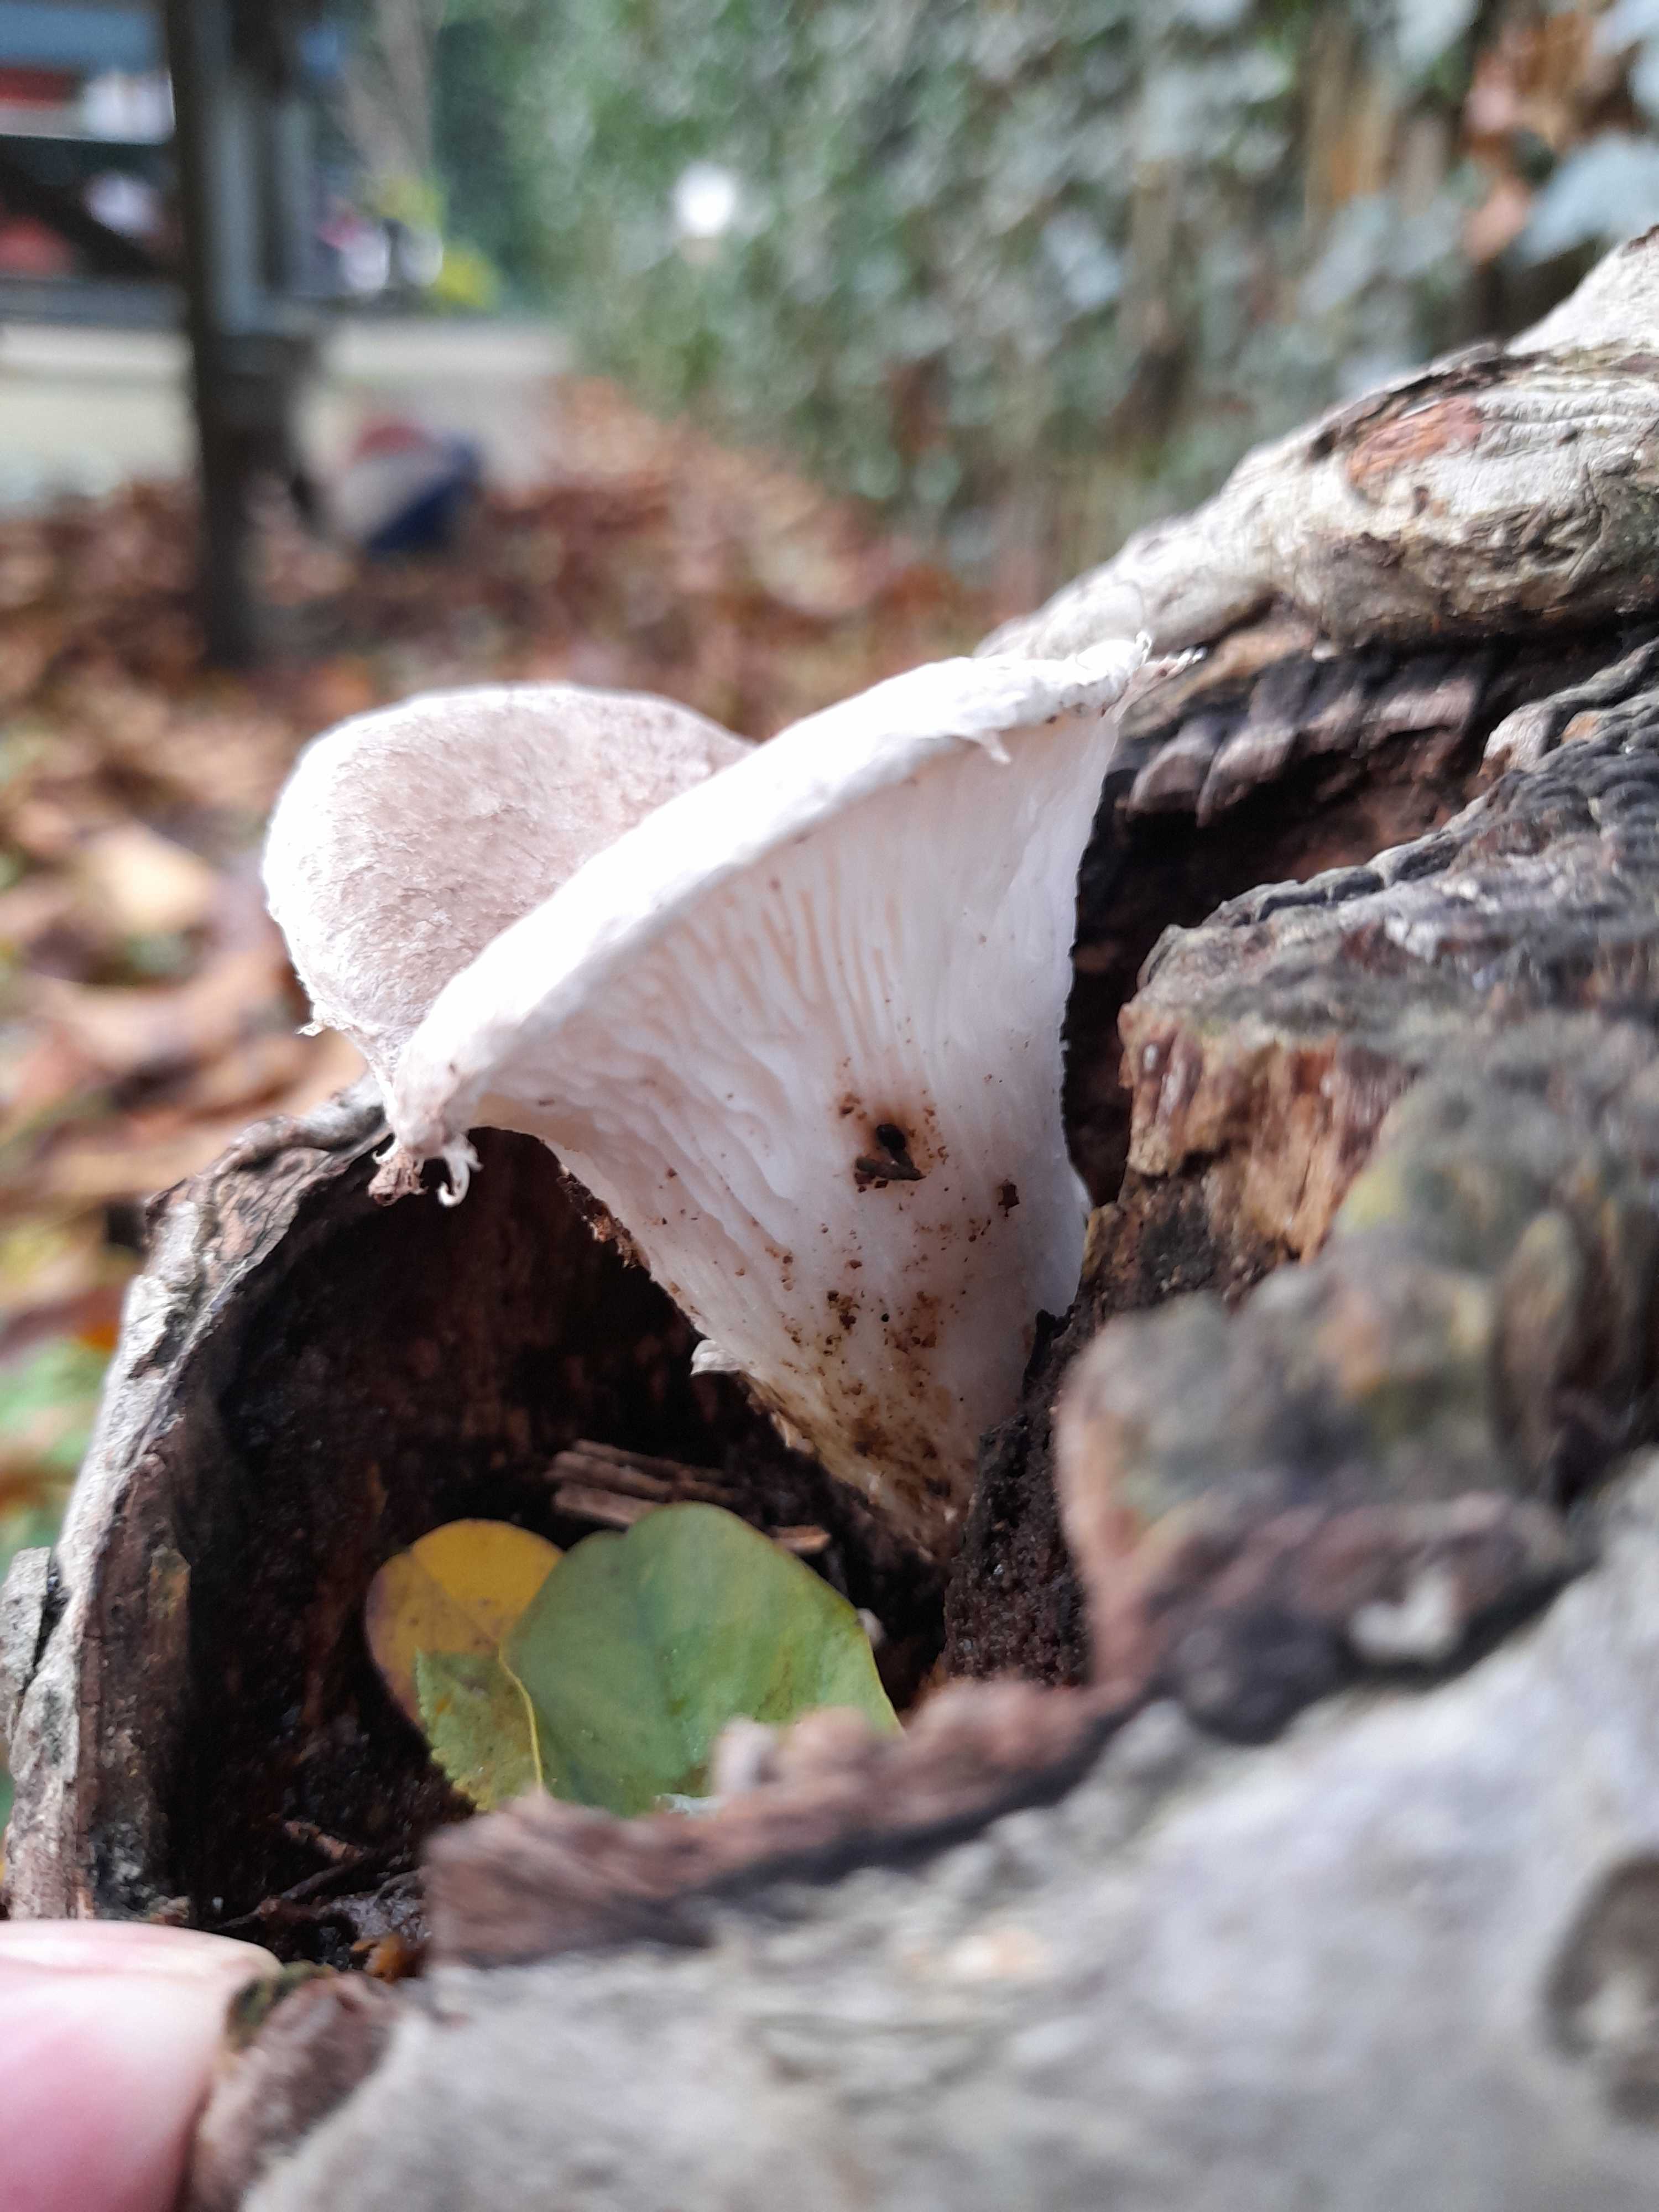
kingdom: Fungi
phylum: Basidiomycota
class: Agaricomycetes
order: Agaricales
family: Pleurotaceae
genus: Pleurotus
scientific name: Pleurotus dryinus
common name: korkagtig østershat
